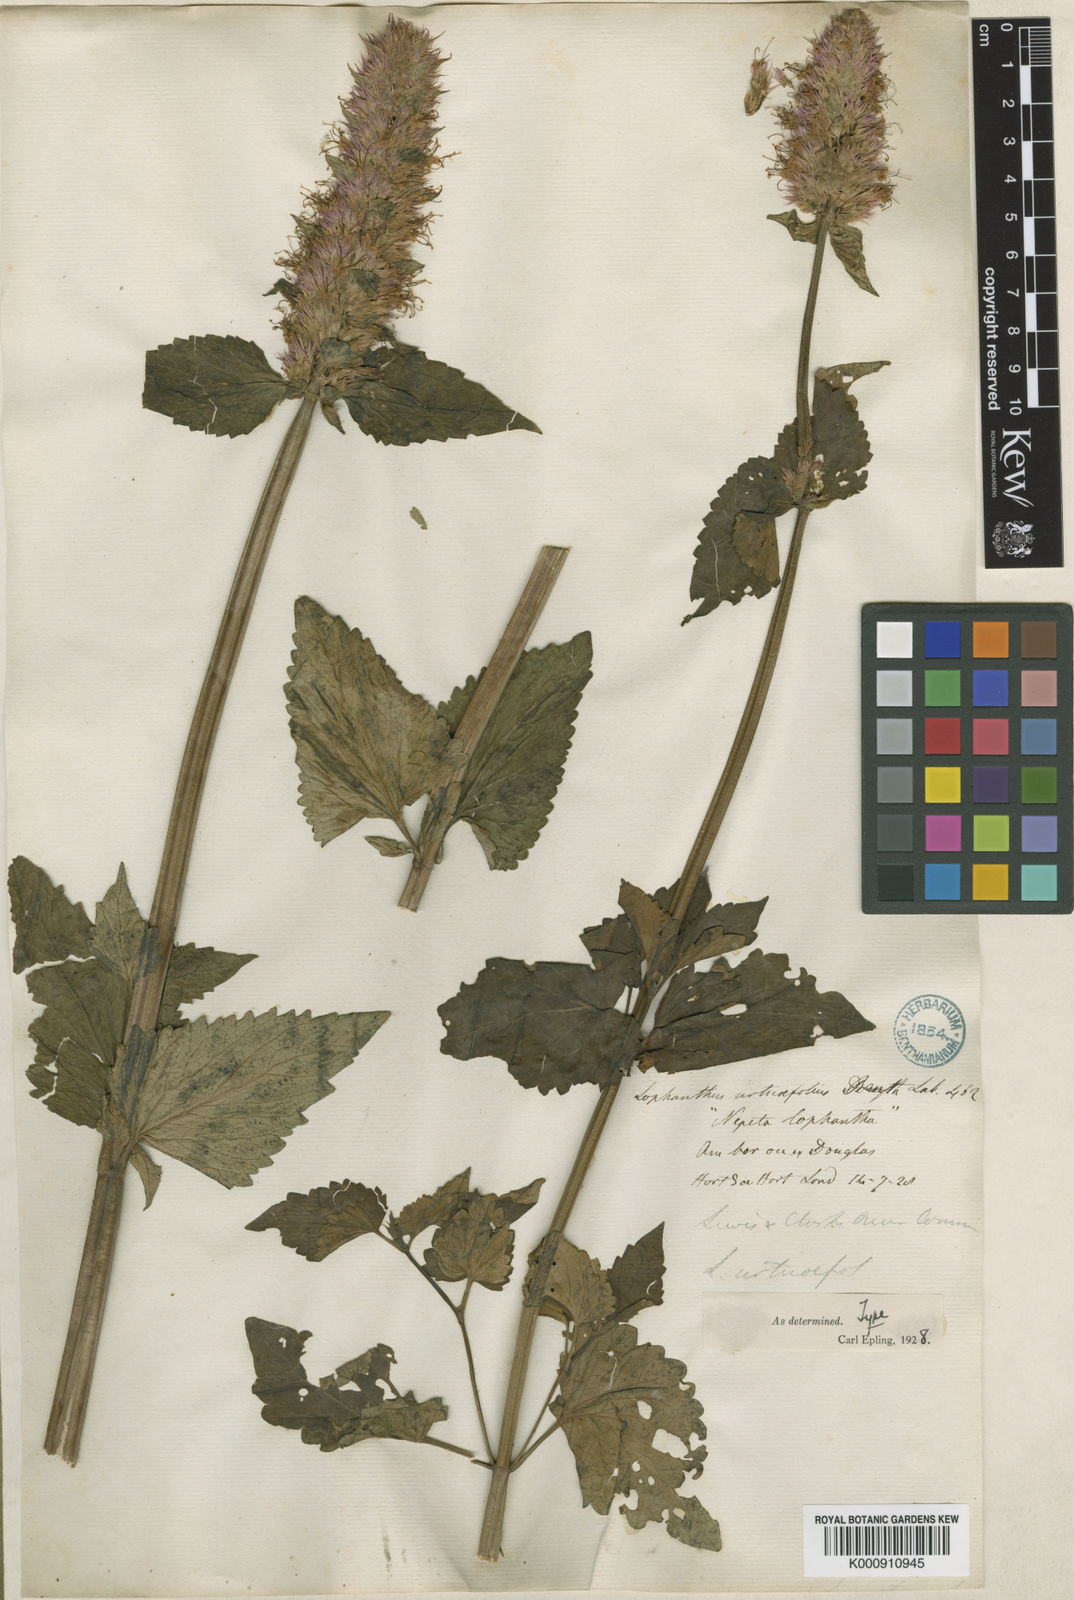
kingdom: Plantae
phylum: Tracheophyta
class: Magnoliopsida
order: Lamiales
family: Lamiaceae
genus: Agastache
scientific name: Agastache urticifolia
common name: Horsemint giant hyssop
